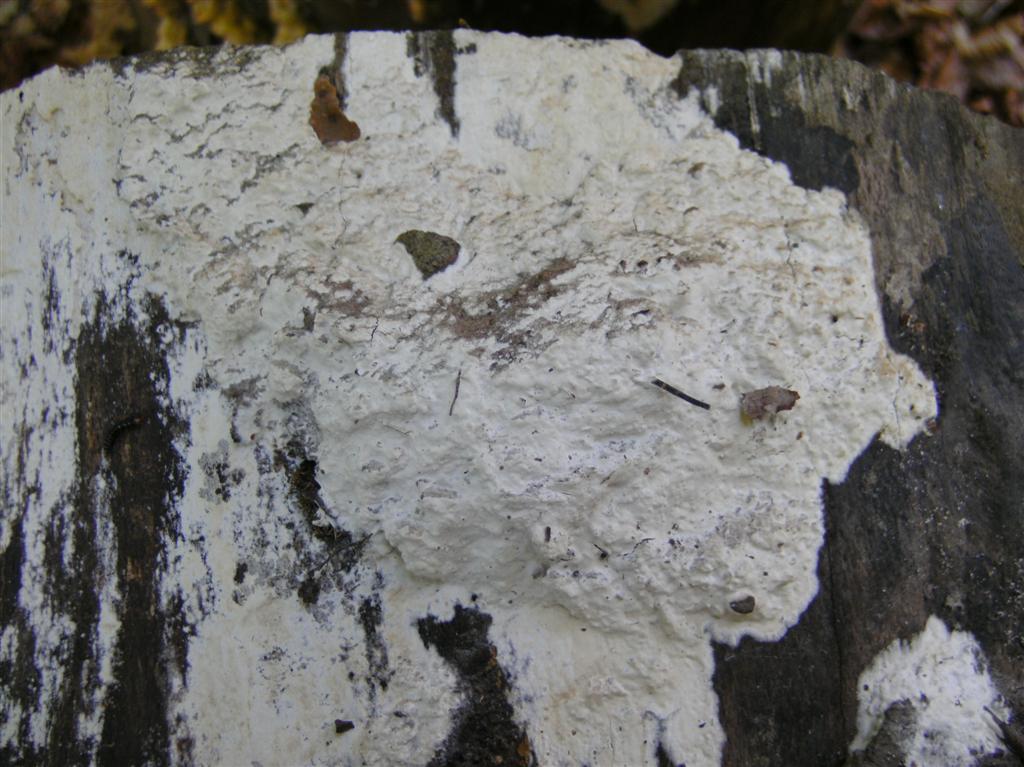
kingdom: Fungi
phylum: Basidiomycota
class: Agaricomycetes
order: Polyporales
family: Phanerochaetaceae
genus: Phanerochaete
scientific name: Phanerochaete sordida
